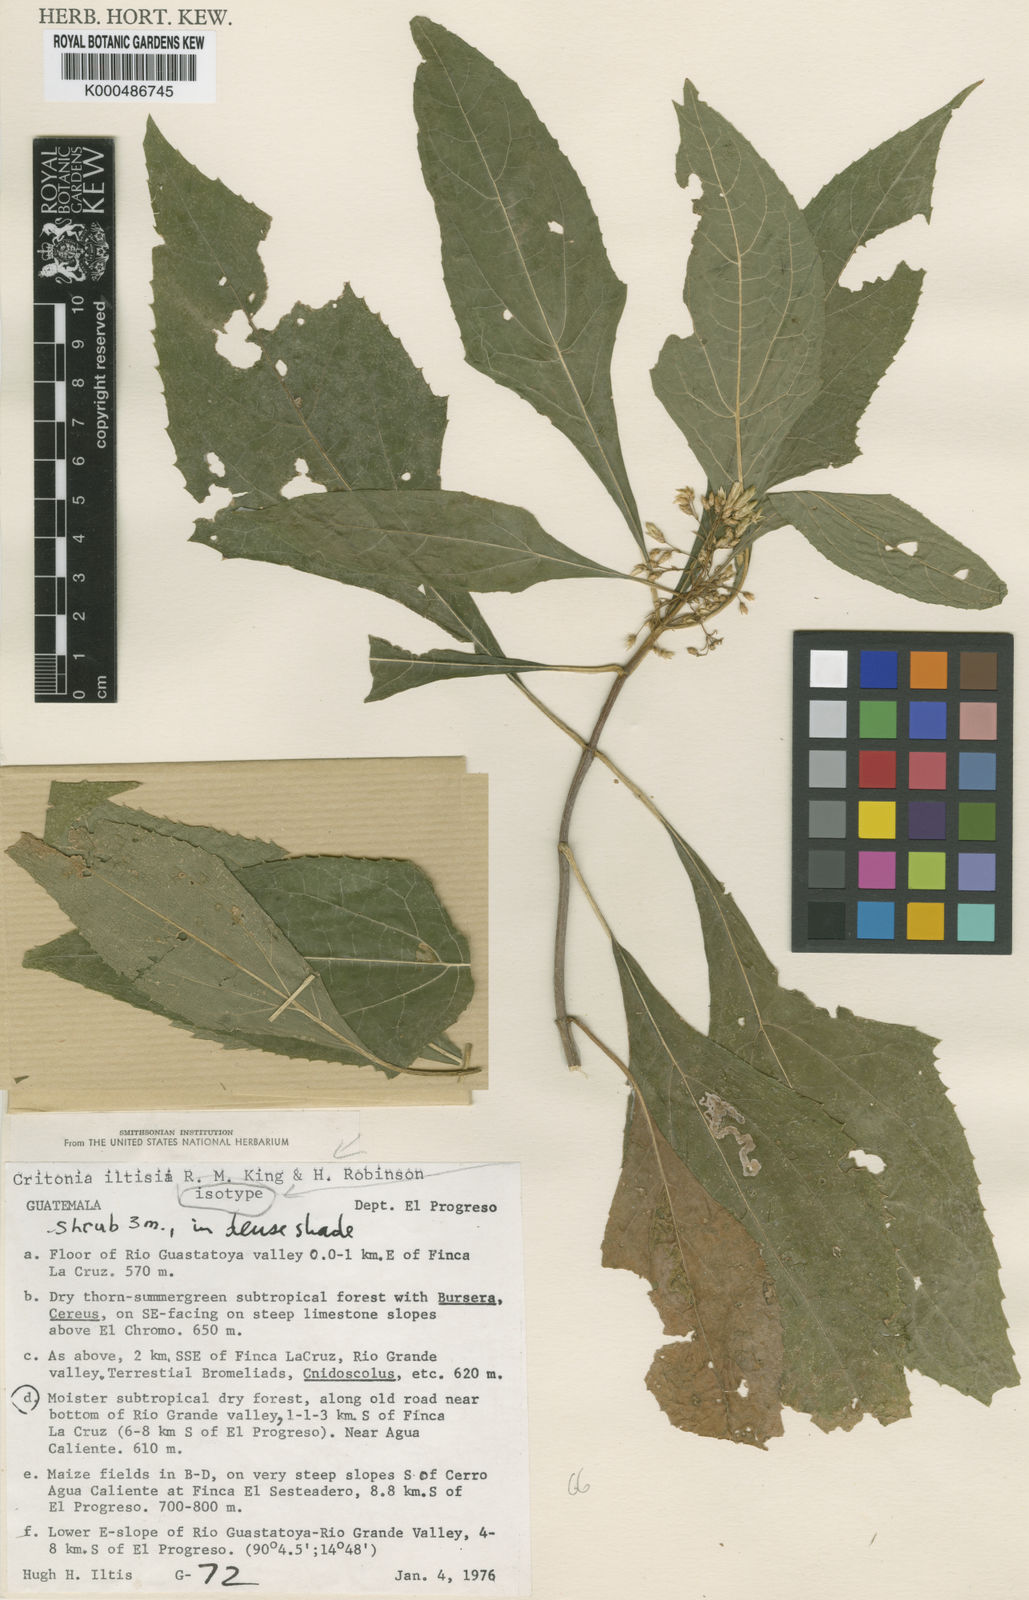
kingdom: Plantae
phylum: Tracheophyta
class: Magnoliopsida
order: Asterales
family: Asteraceae
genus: Kyrsteniopsis
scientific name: Kyrsteniopsis iltisii
